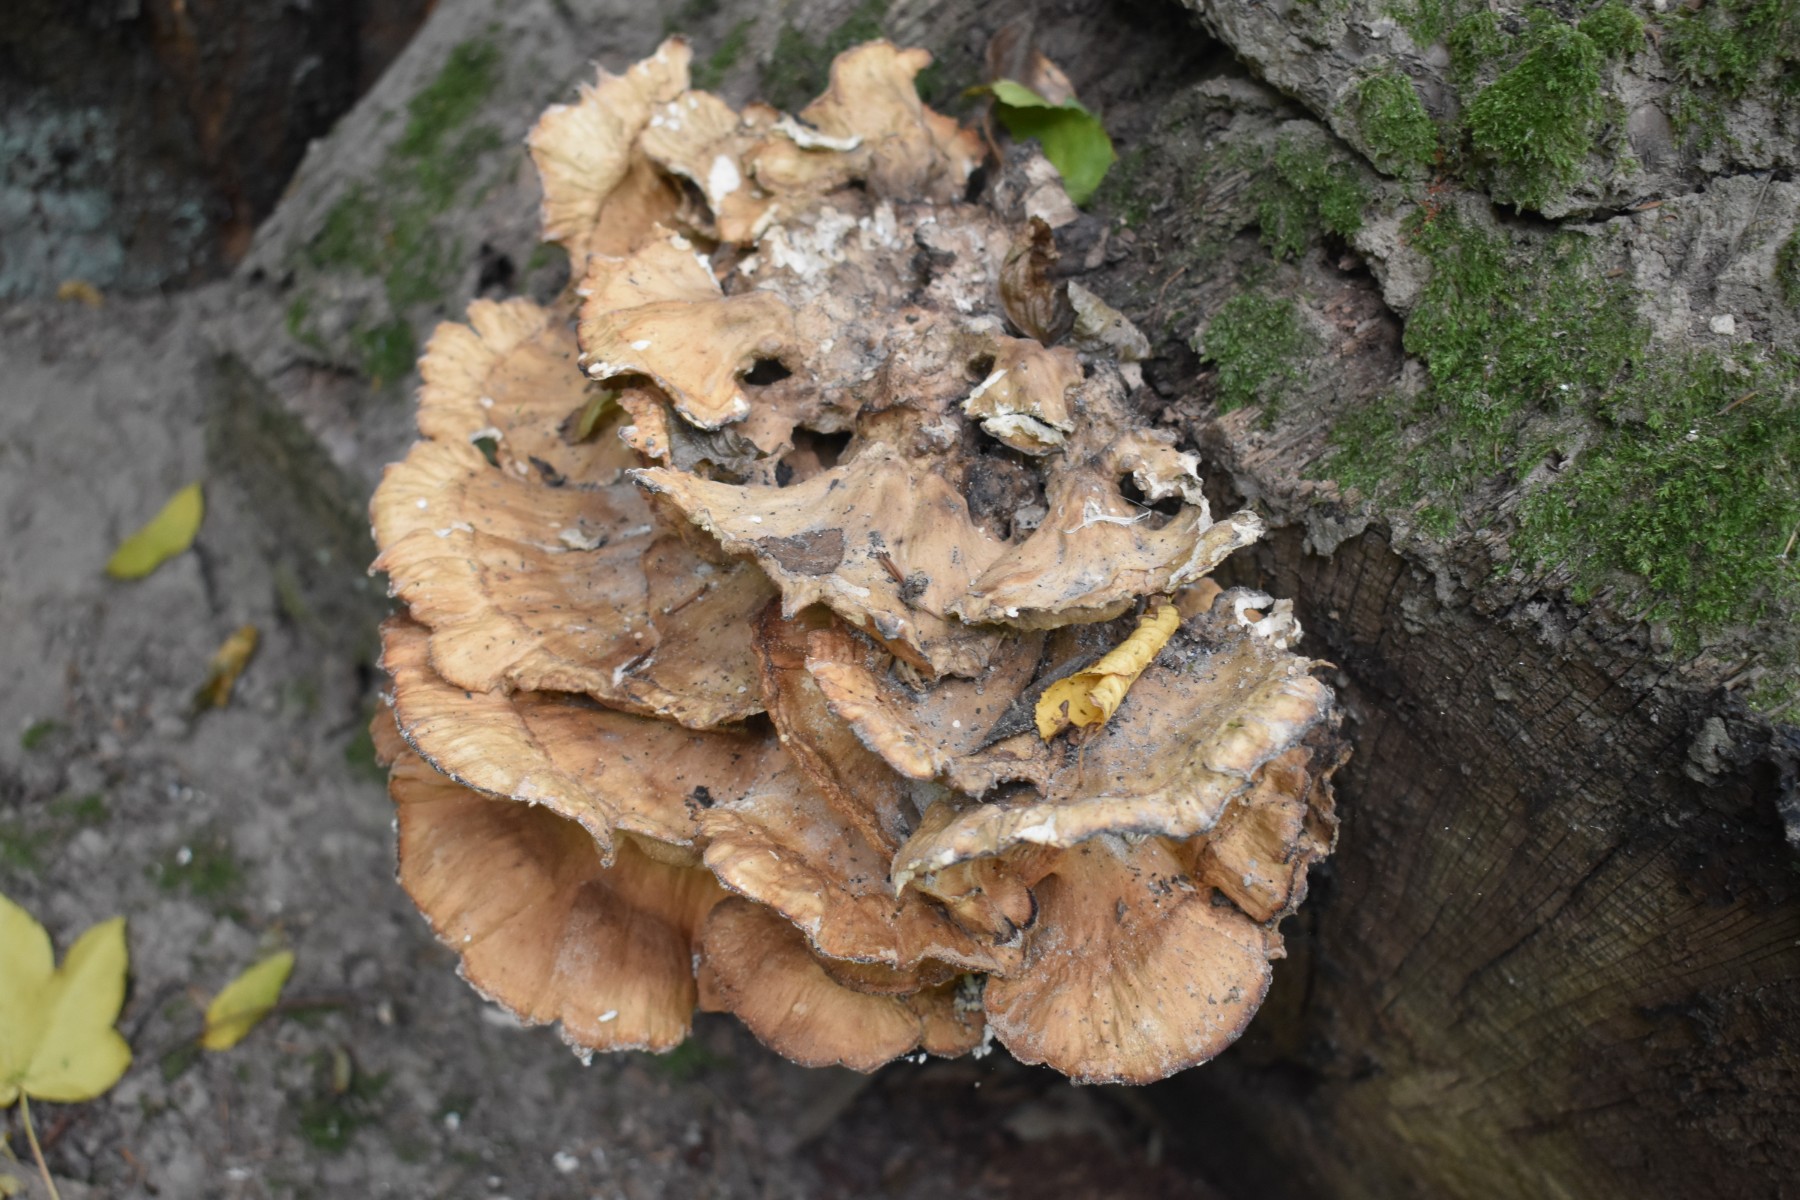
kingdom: Fungi
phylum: Basidiomycota
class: Agaricomycetes
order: Polyporales
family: Meripilaceae
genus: Meripilus
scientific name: Meripilus giganteus
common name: kæmpeporesvamp
